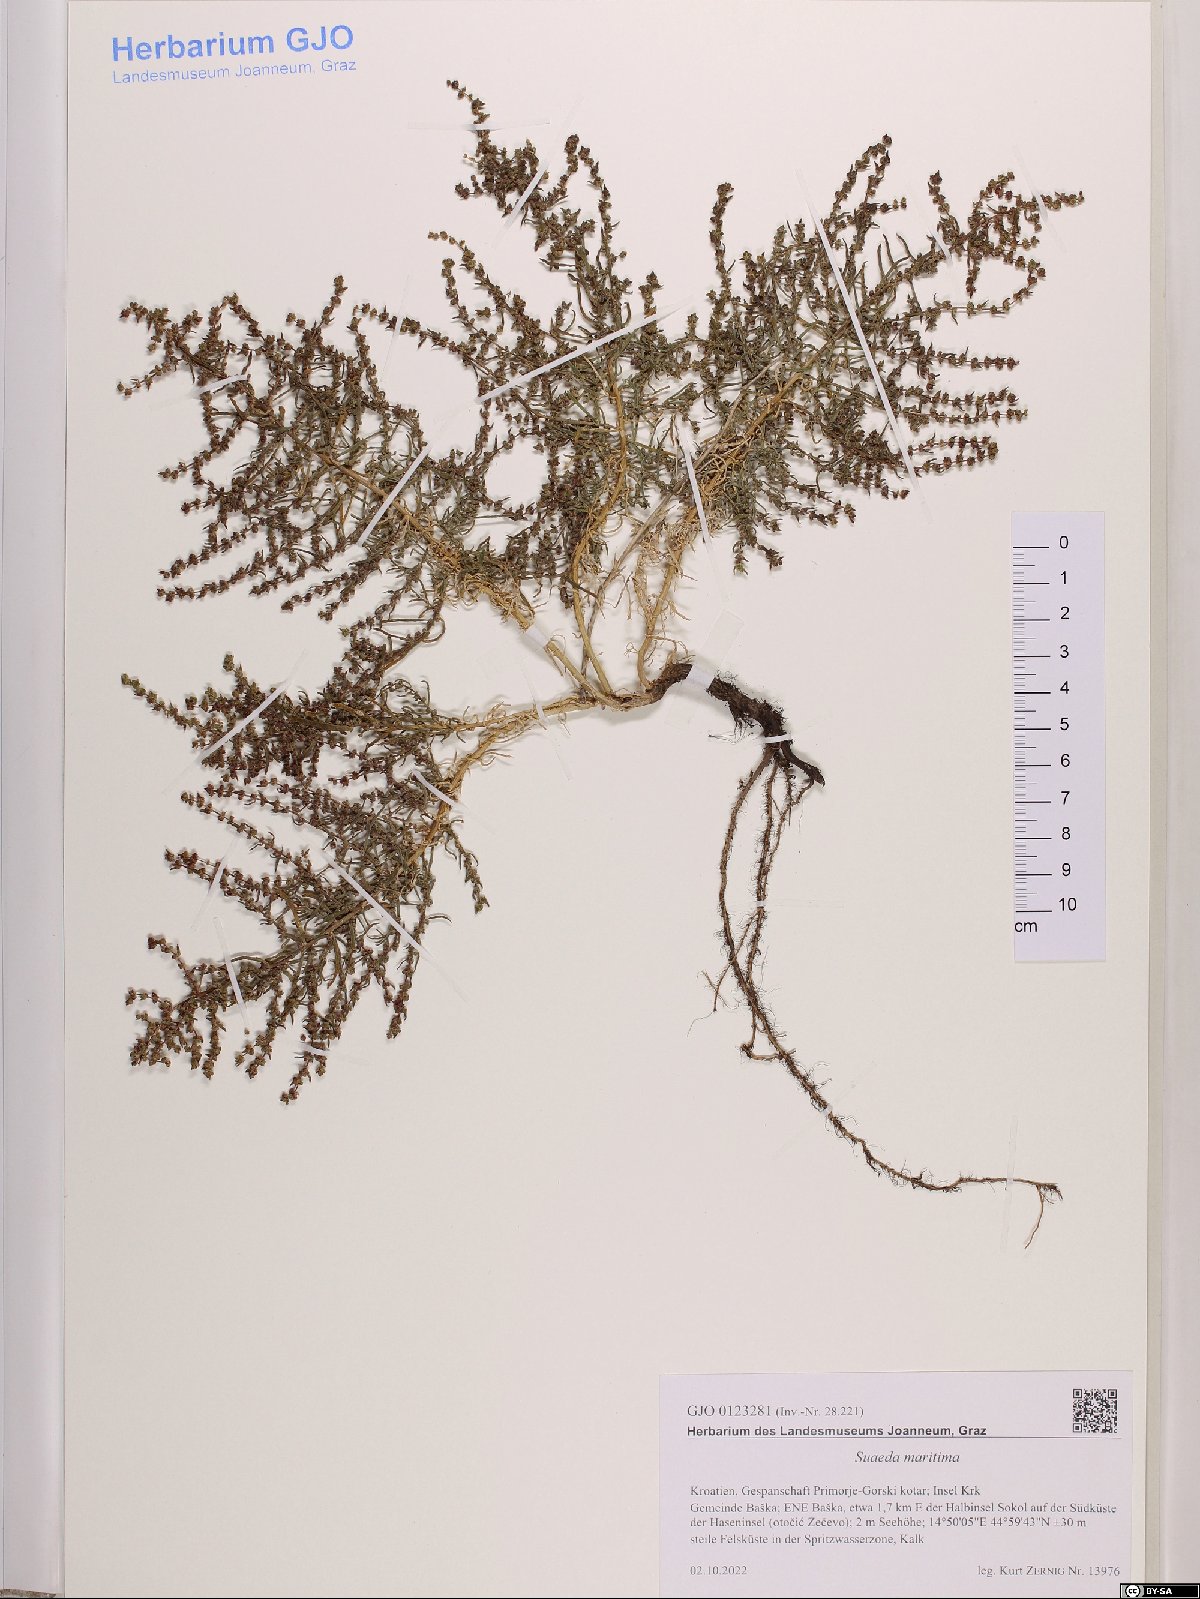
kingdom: Plantae
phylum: Tracheophyta
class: Magnoliopsida
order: Caryophyllales
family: Amaranthaceae
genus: Suaeda
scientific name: Suaeda maritima
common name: Annual sea-blite
